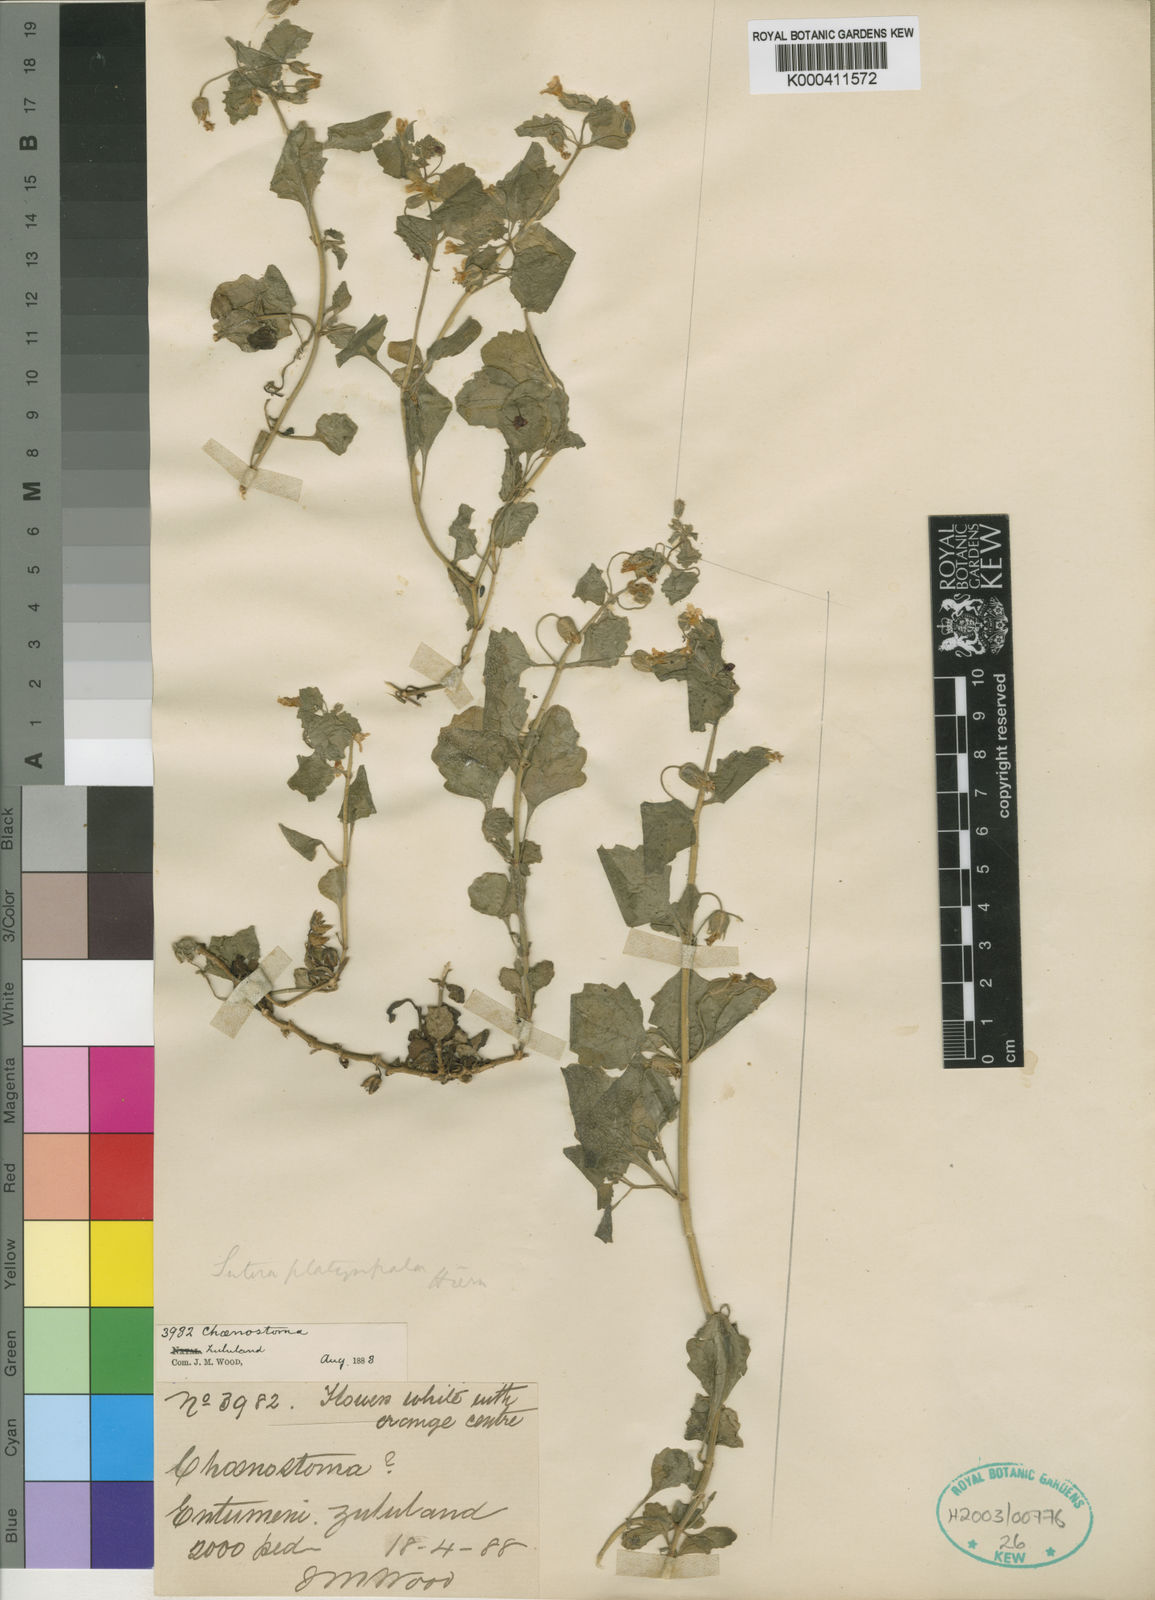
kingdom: Plantae
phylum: Tracheophyta
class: Magnoliopsida
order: Lamiales
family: Scrophulariaceae
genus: Chaenostoma
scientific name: Chaenostoma platysepalum
